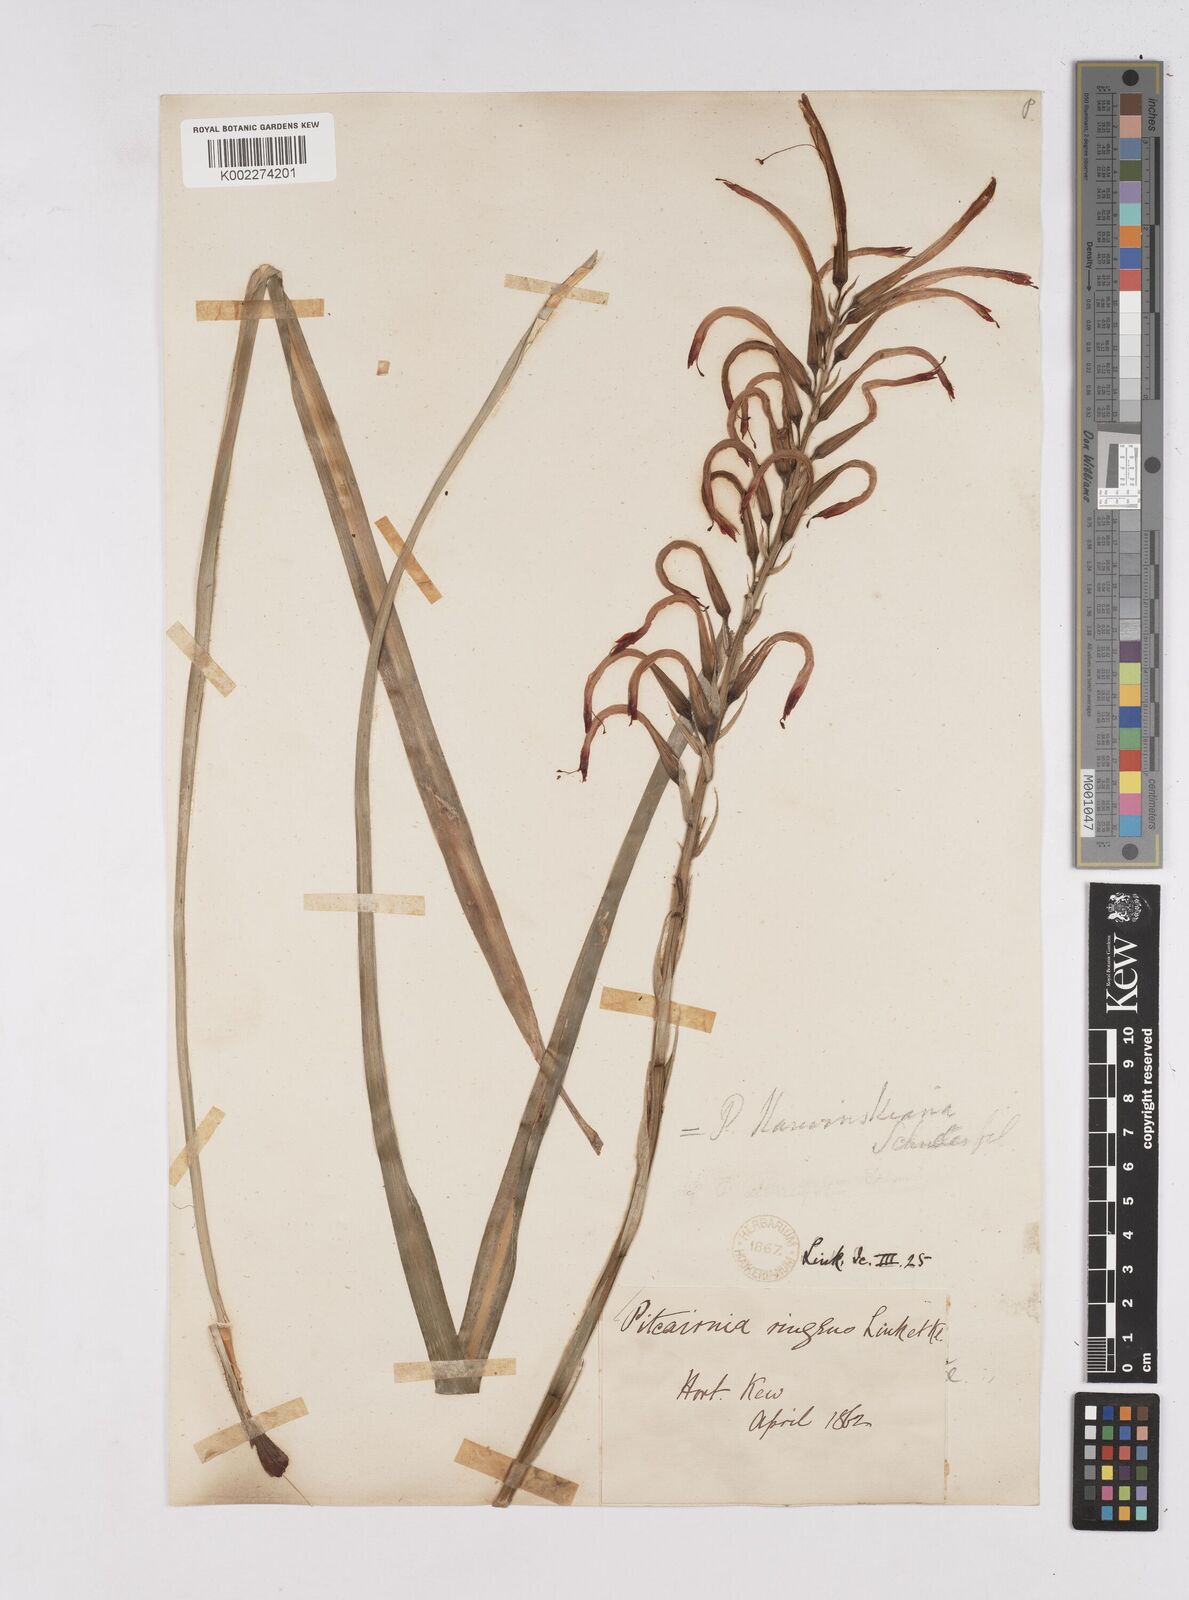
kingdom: Plantae
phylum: Tracheophyta
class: Liliopsida
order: Poales
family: Bromeliaceae
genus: Pitcairnia
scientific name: Pitcairnia ringens
